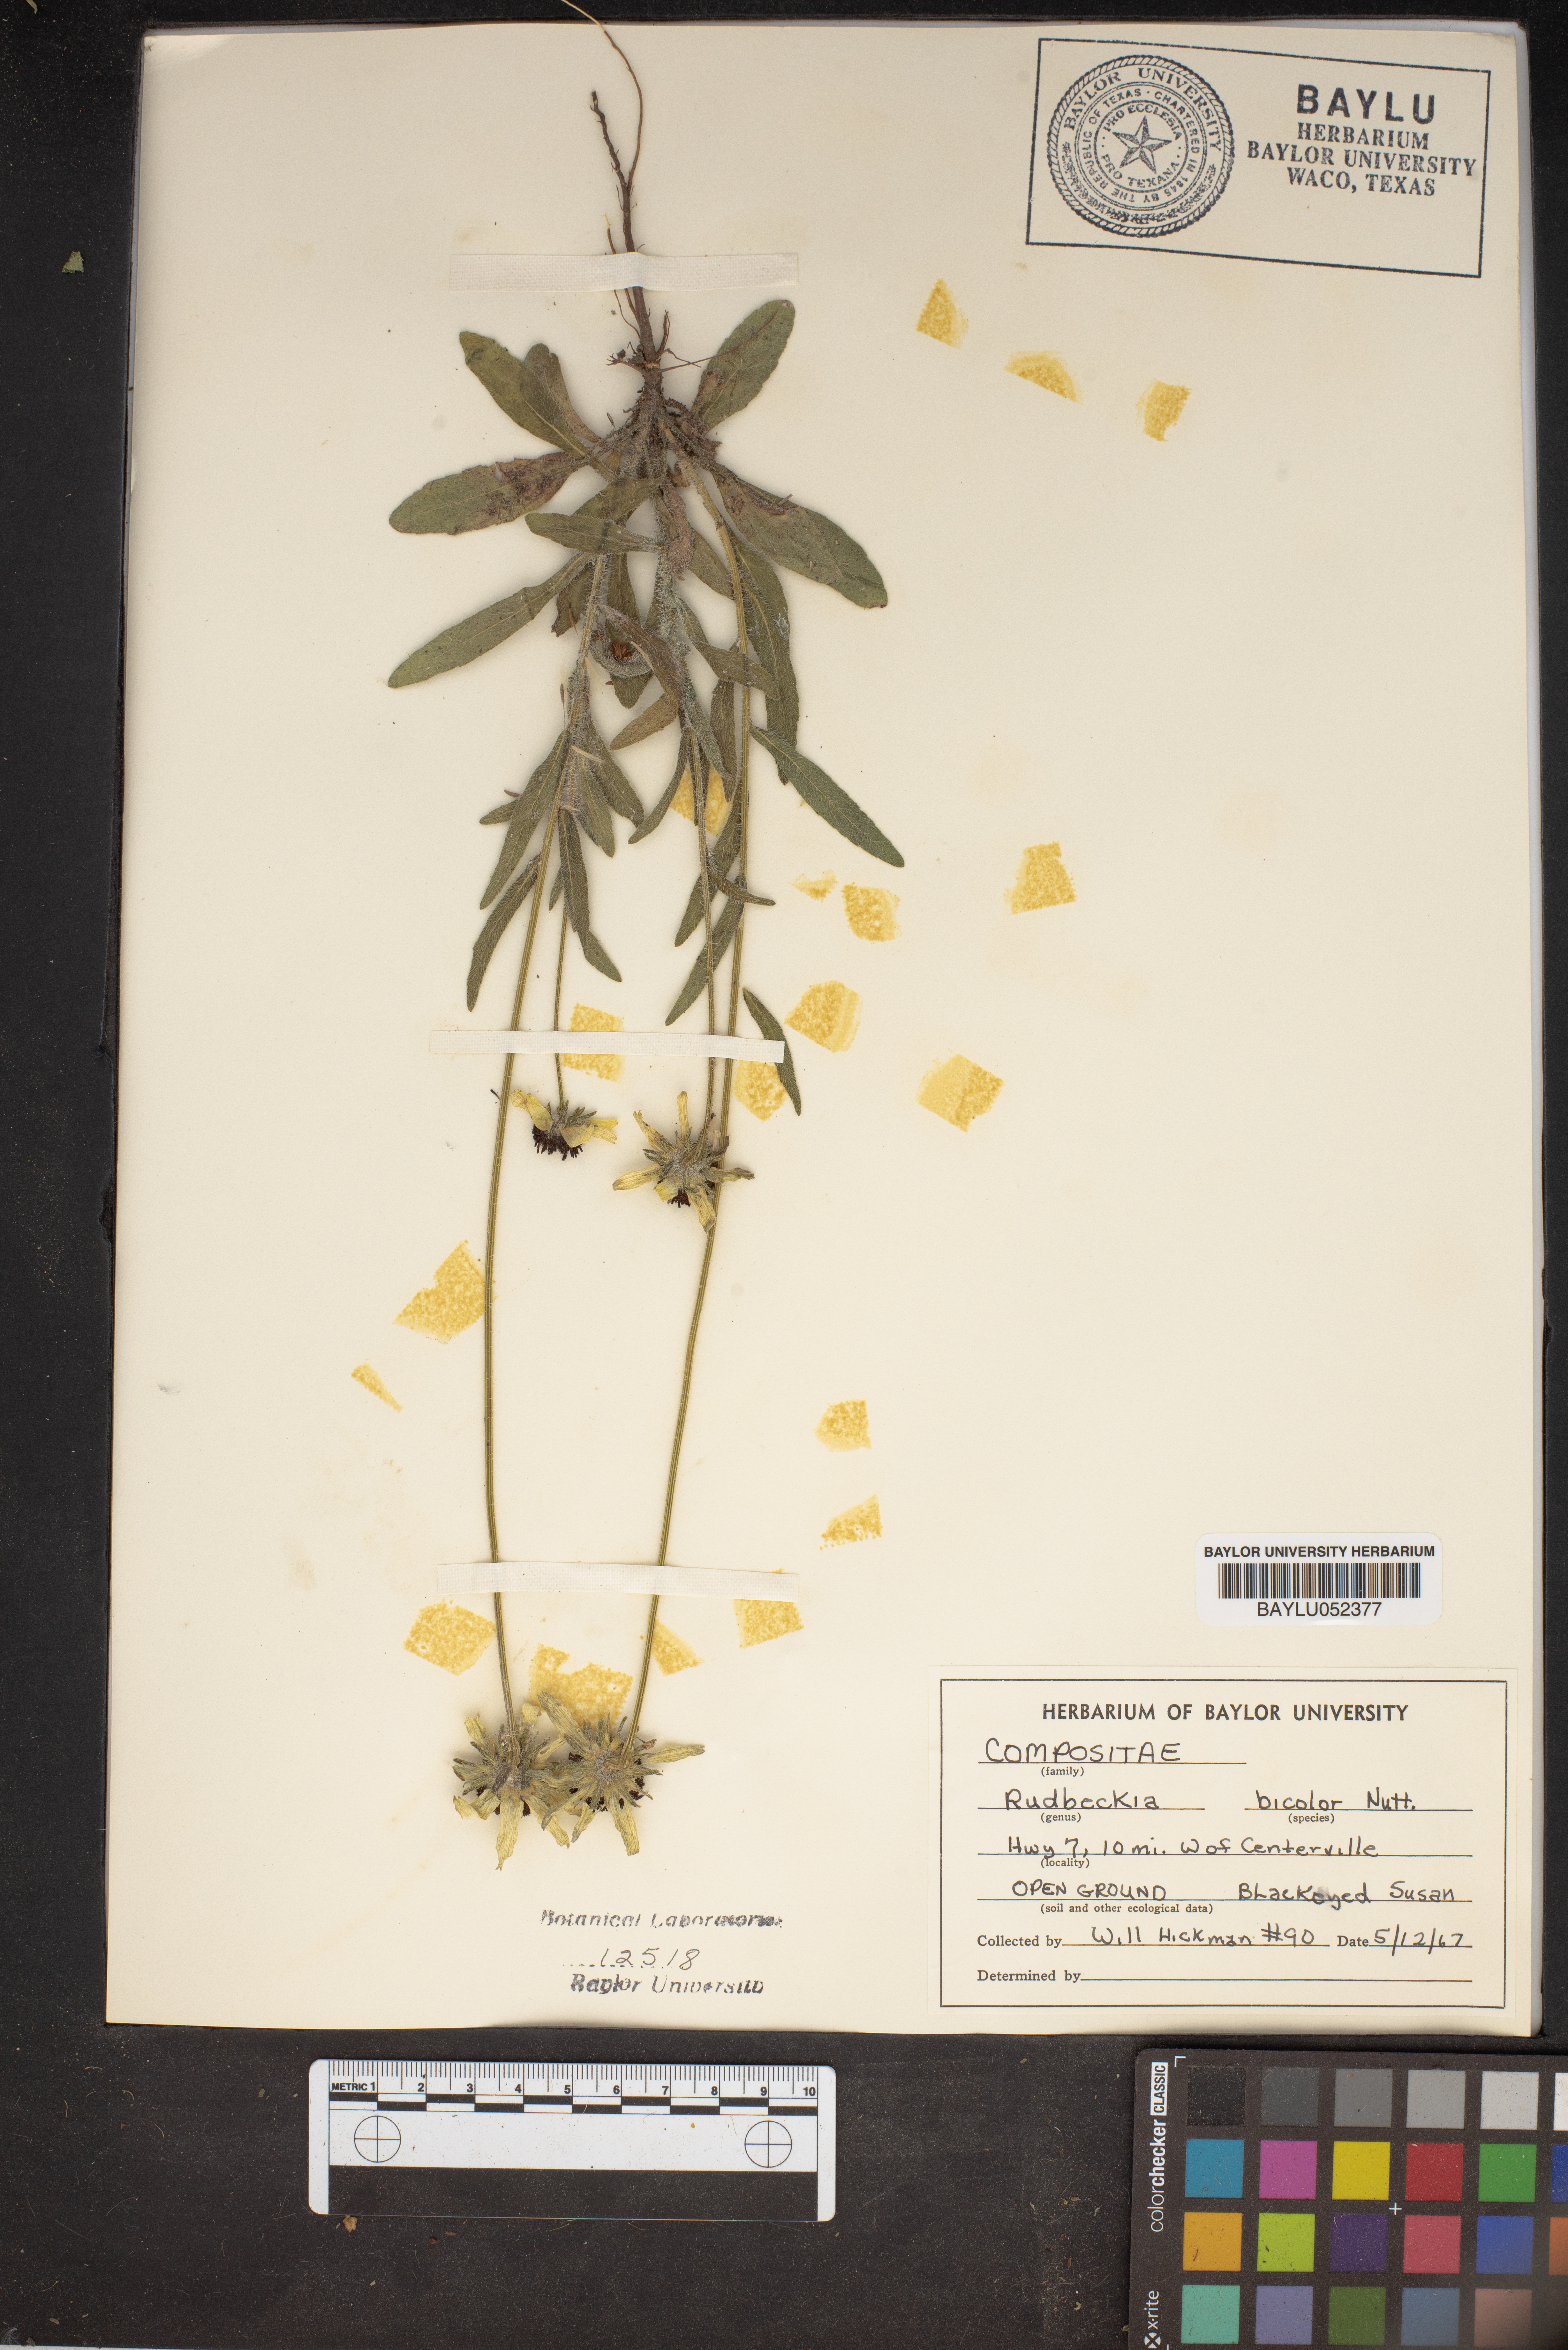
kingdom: Plantae
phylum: Tracheophyta
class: Magnoliopsida
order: Asterales
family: Asteraceae
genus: Rudbeckia
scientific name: Rudbeckia hirta
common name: Black-eyed-susan
